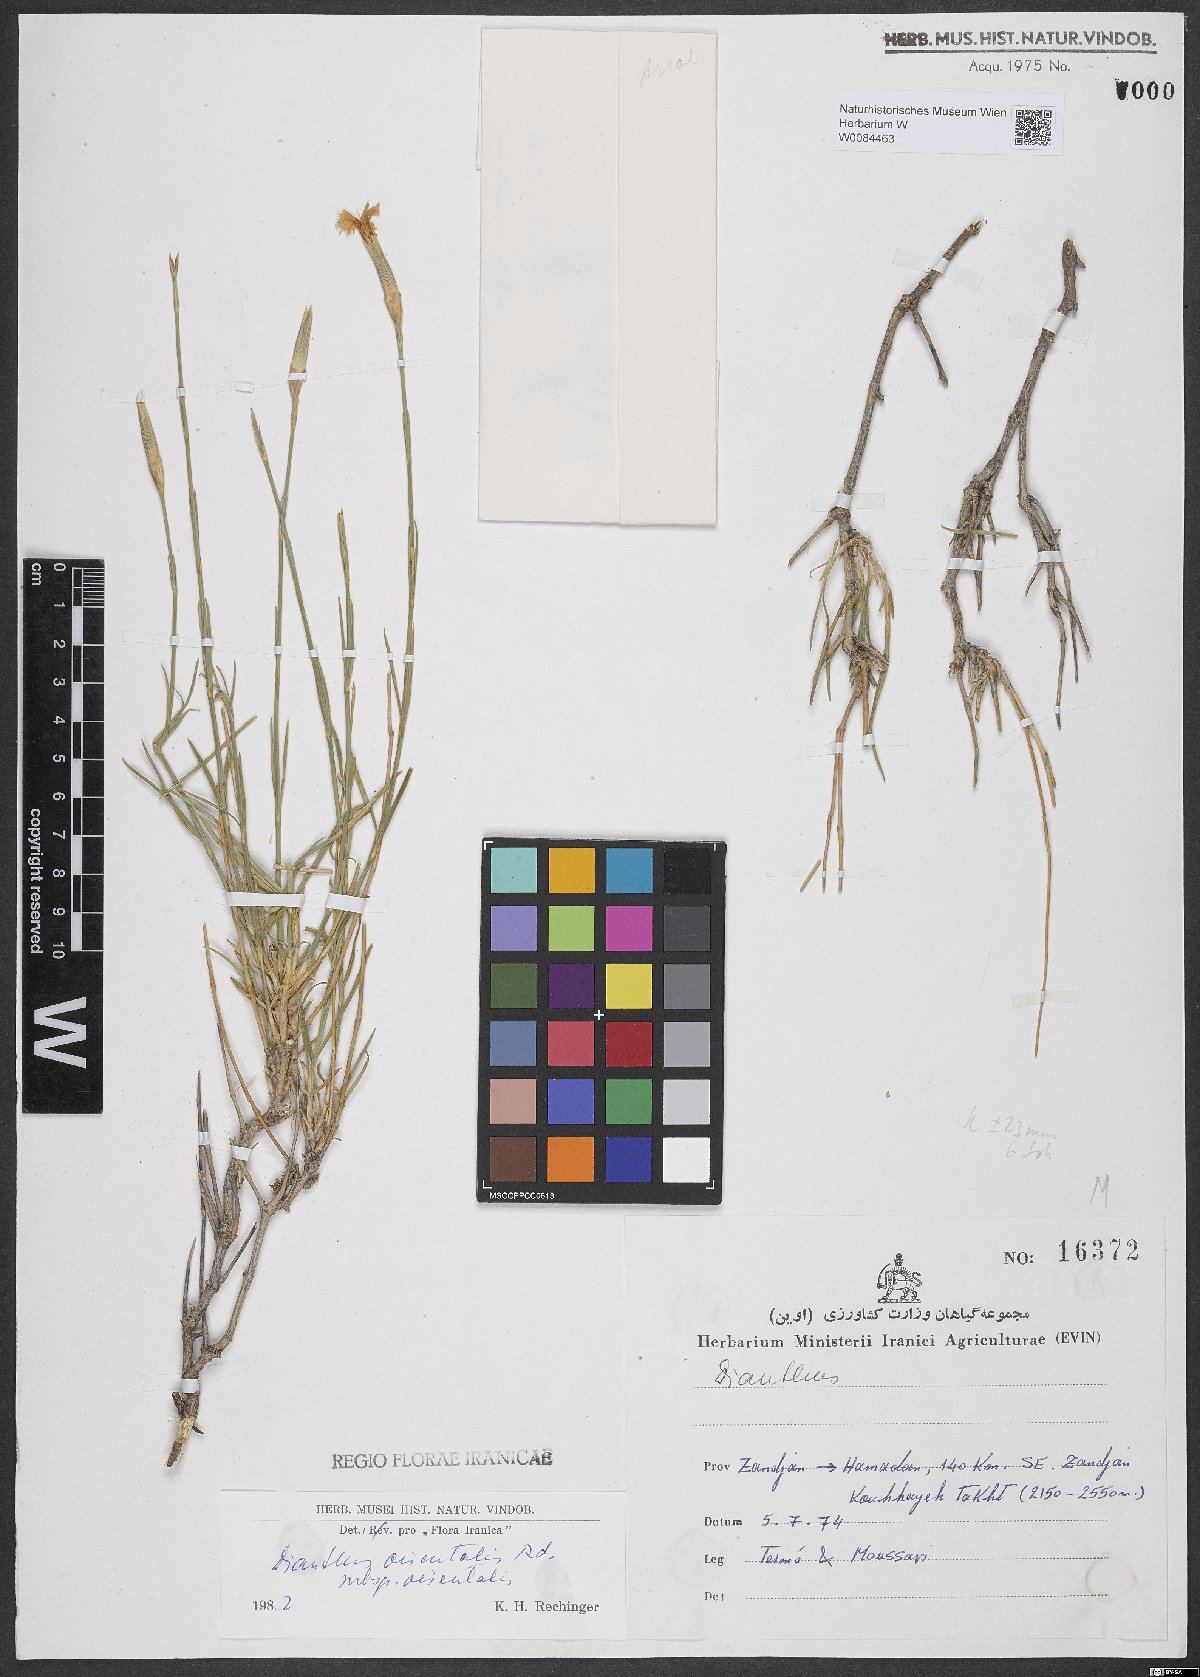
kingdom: Plantae
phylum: Tracheophyta
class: Magnoliopsida
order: Caryophyllales
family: Caryophyllaceae
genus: Dianthus
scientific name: Dianthus orientalis
